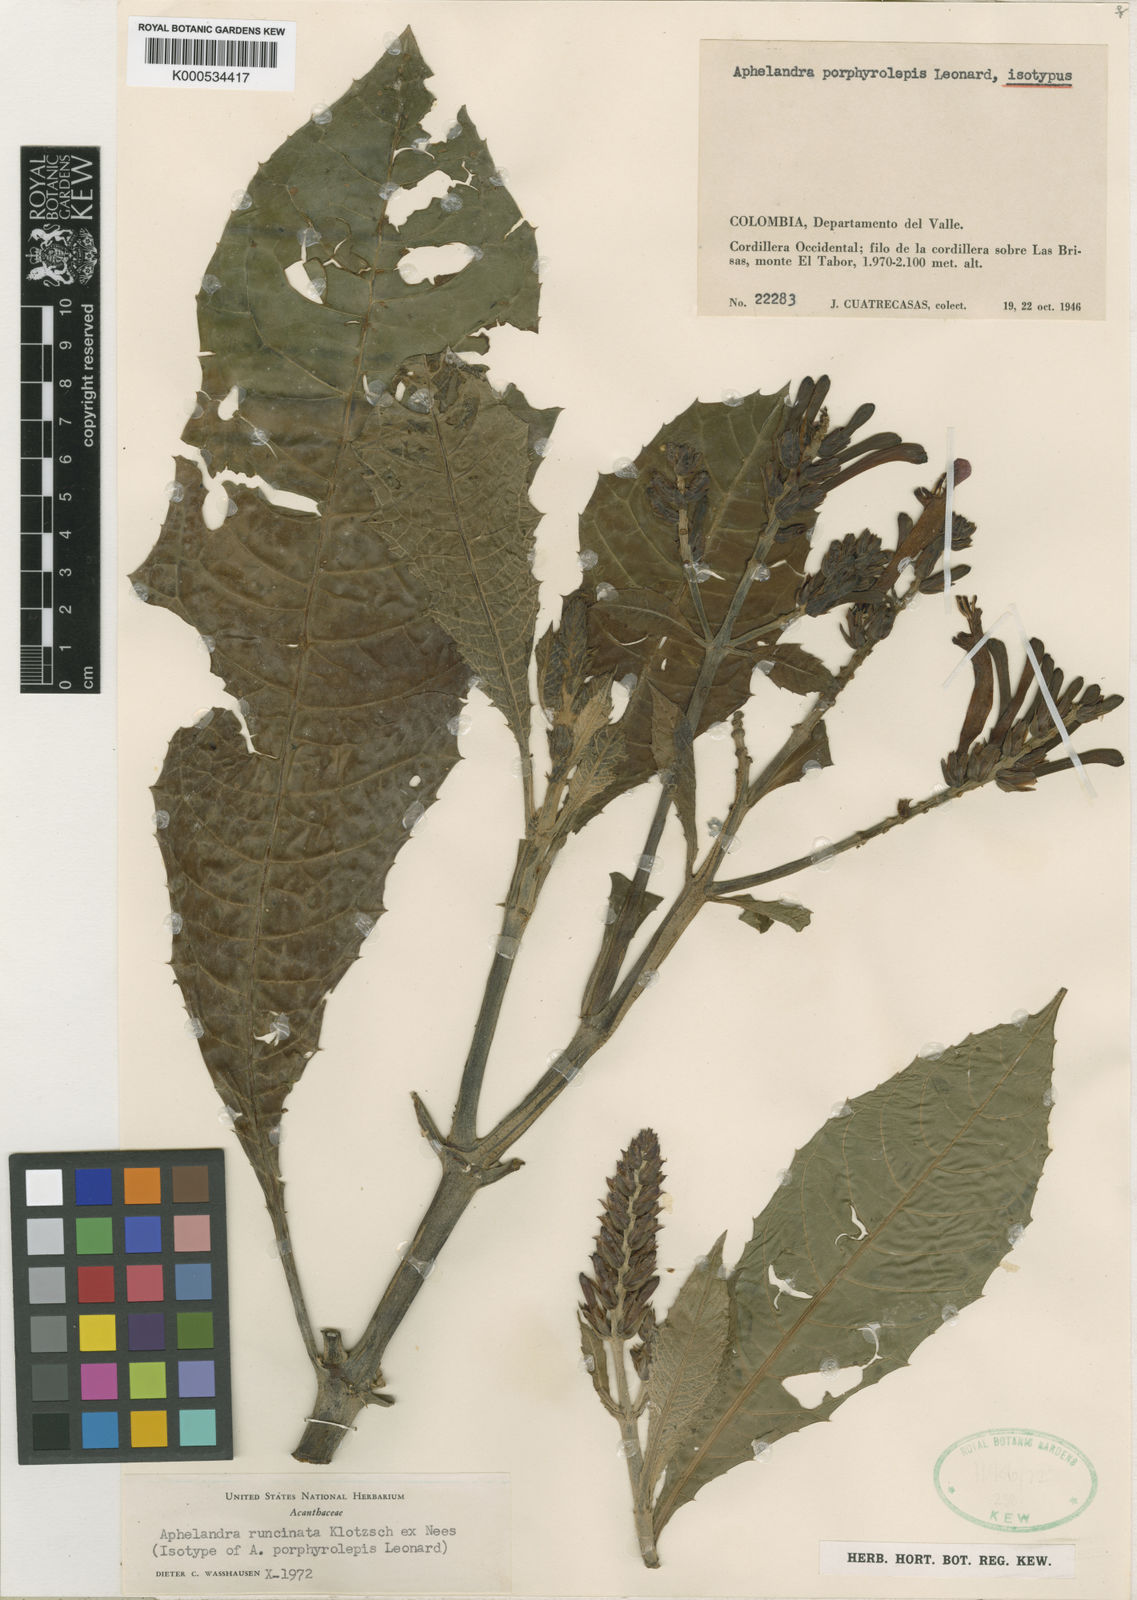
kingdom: Plantae
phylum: Tracheophyta
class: Magnoliopsida
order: Lamiales
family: Acanthaceae
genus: Aphelandra
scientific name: Aphelandra runcinata
